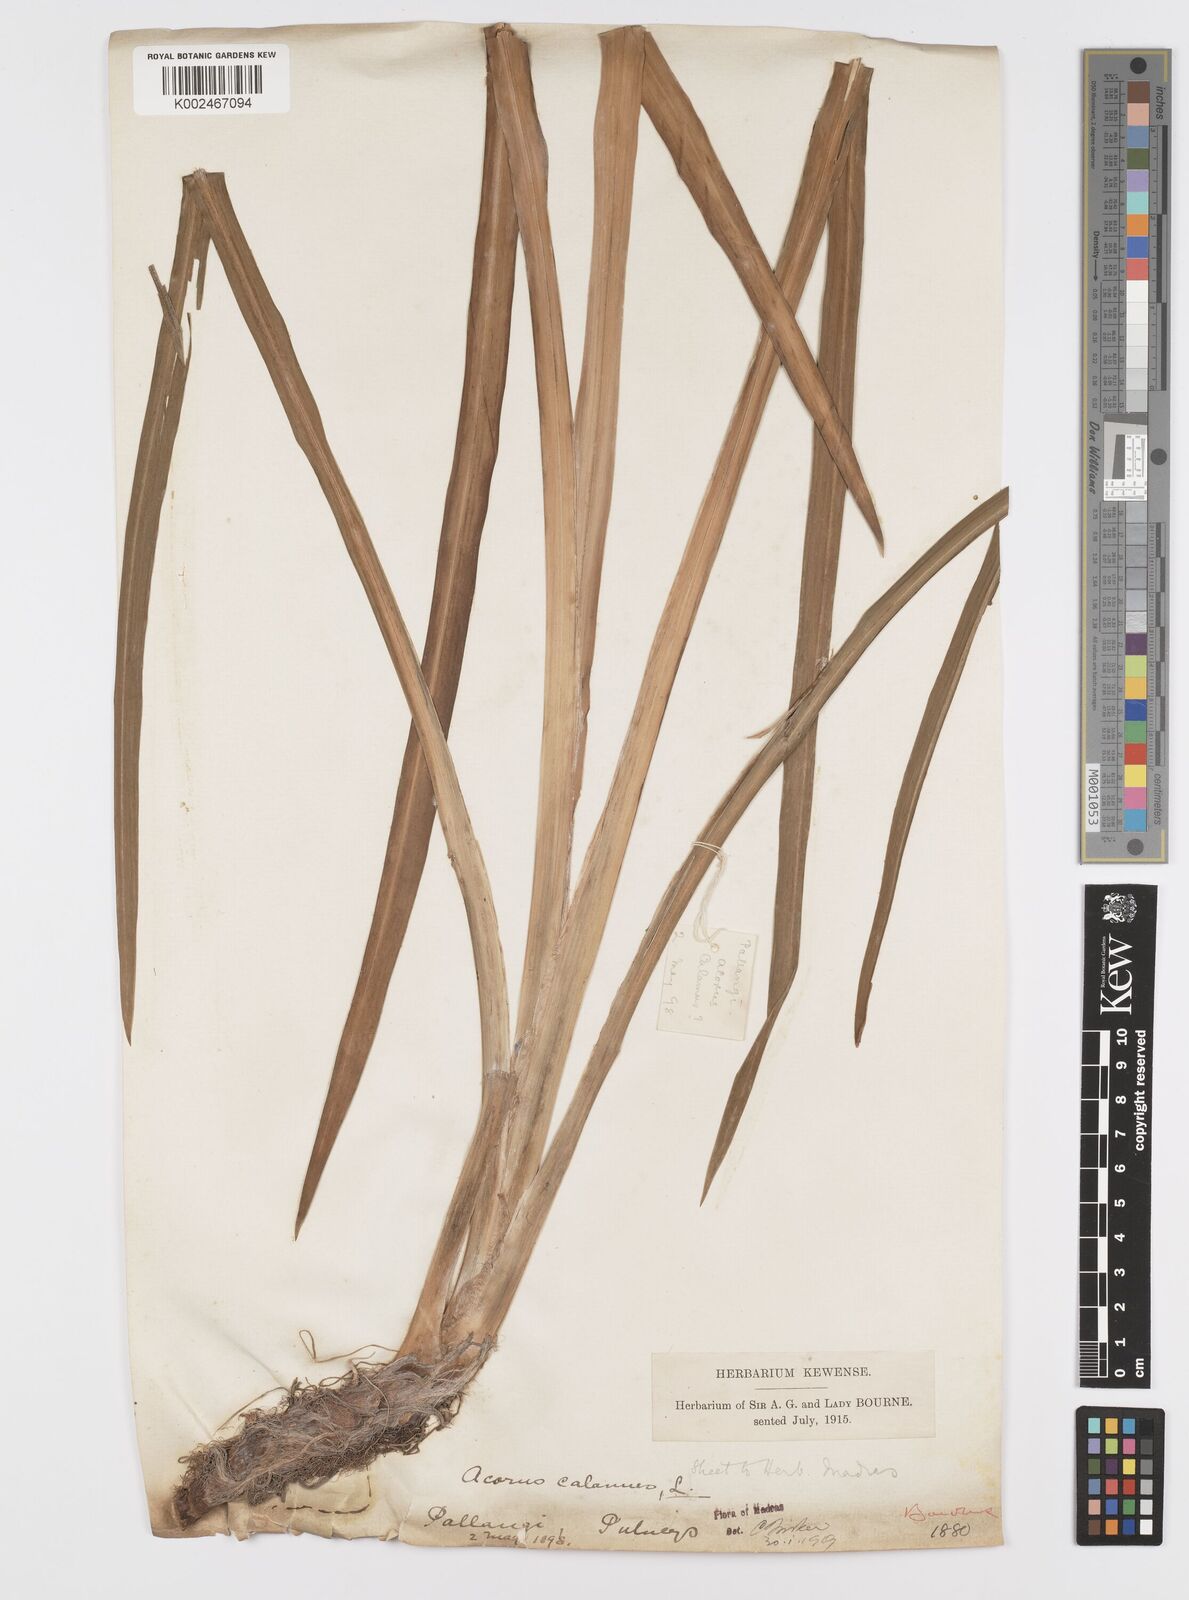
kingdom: Plantae
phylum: Tracheophyta
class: Liliopsida
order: Acorales
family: Acoraceae
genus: Acorus
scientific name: Acorus calamus
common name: Sweet-flag
